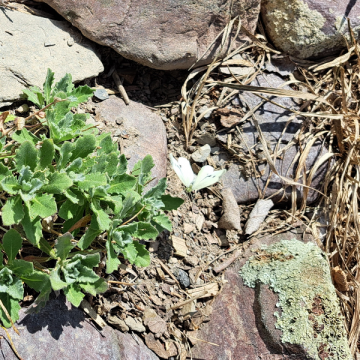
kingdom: Animalia
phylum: Arthropoda
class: Insecta
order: Lepidoptera
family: Pieridae
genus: Pieris
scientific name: Pieris rapae
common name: Cabbage White
